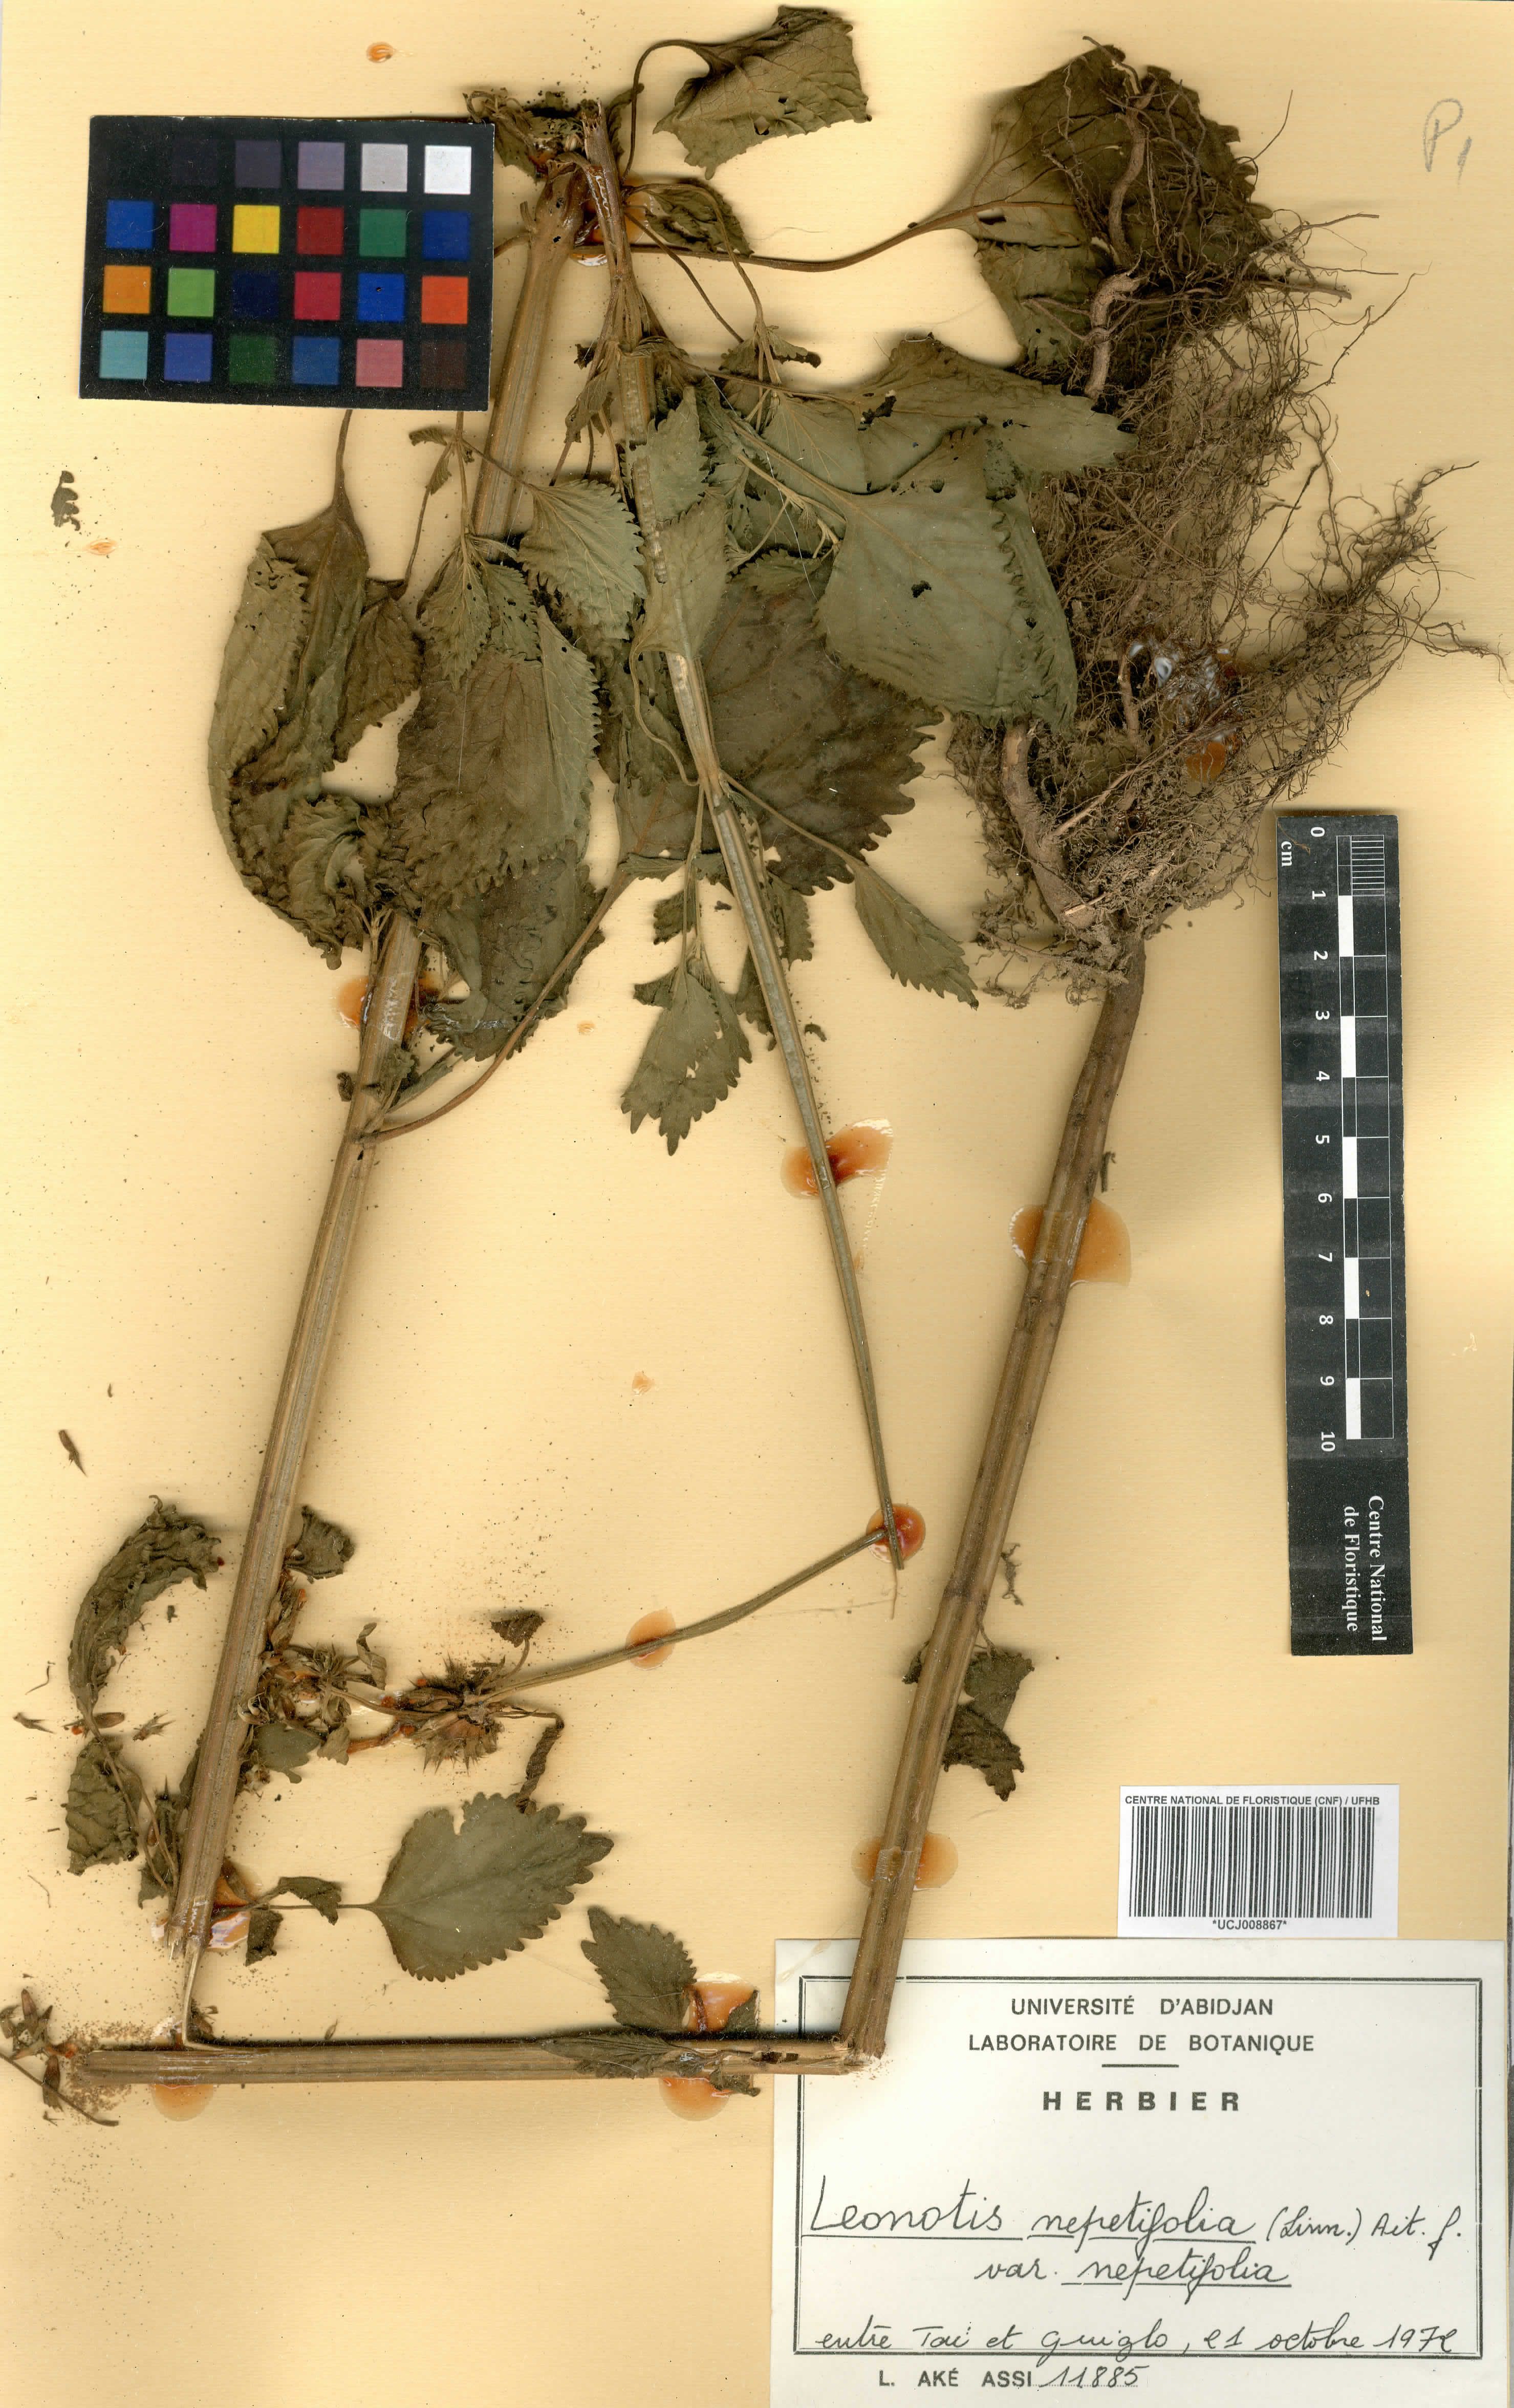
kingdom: Plantae
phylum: Tracheophyta
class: Magnoliopsida
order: Lamiales
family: Lamiaceae
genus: Leonotis
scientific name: Leonotis nepetifolia
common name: Christmas candlestick
